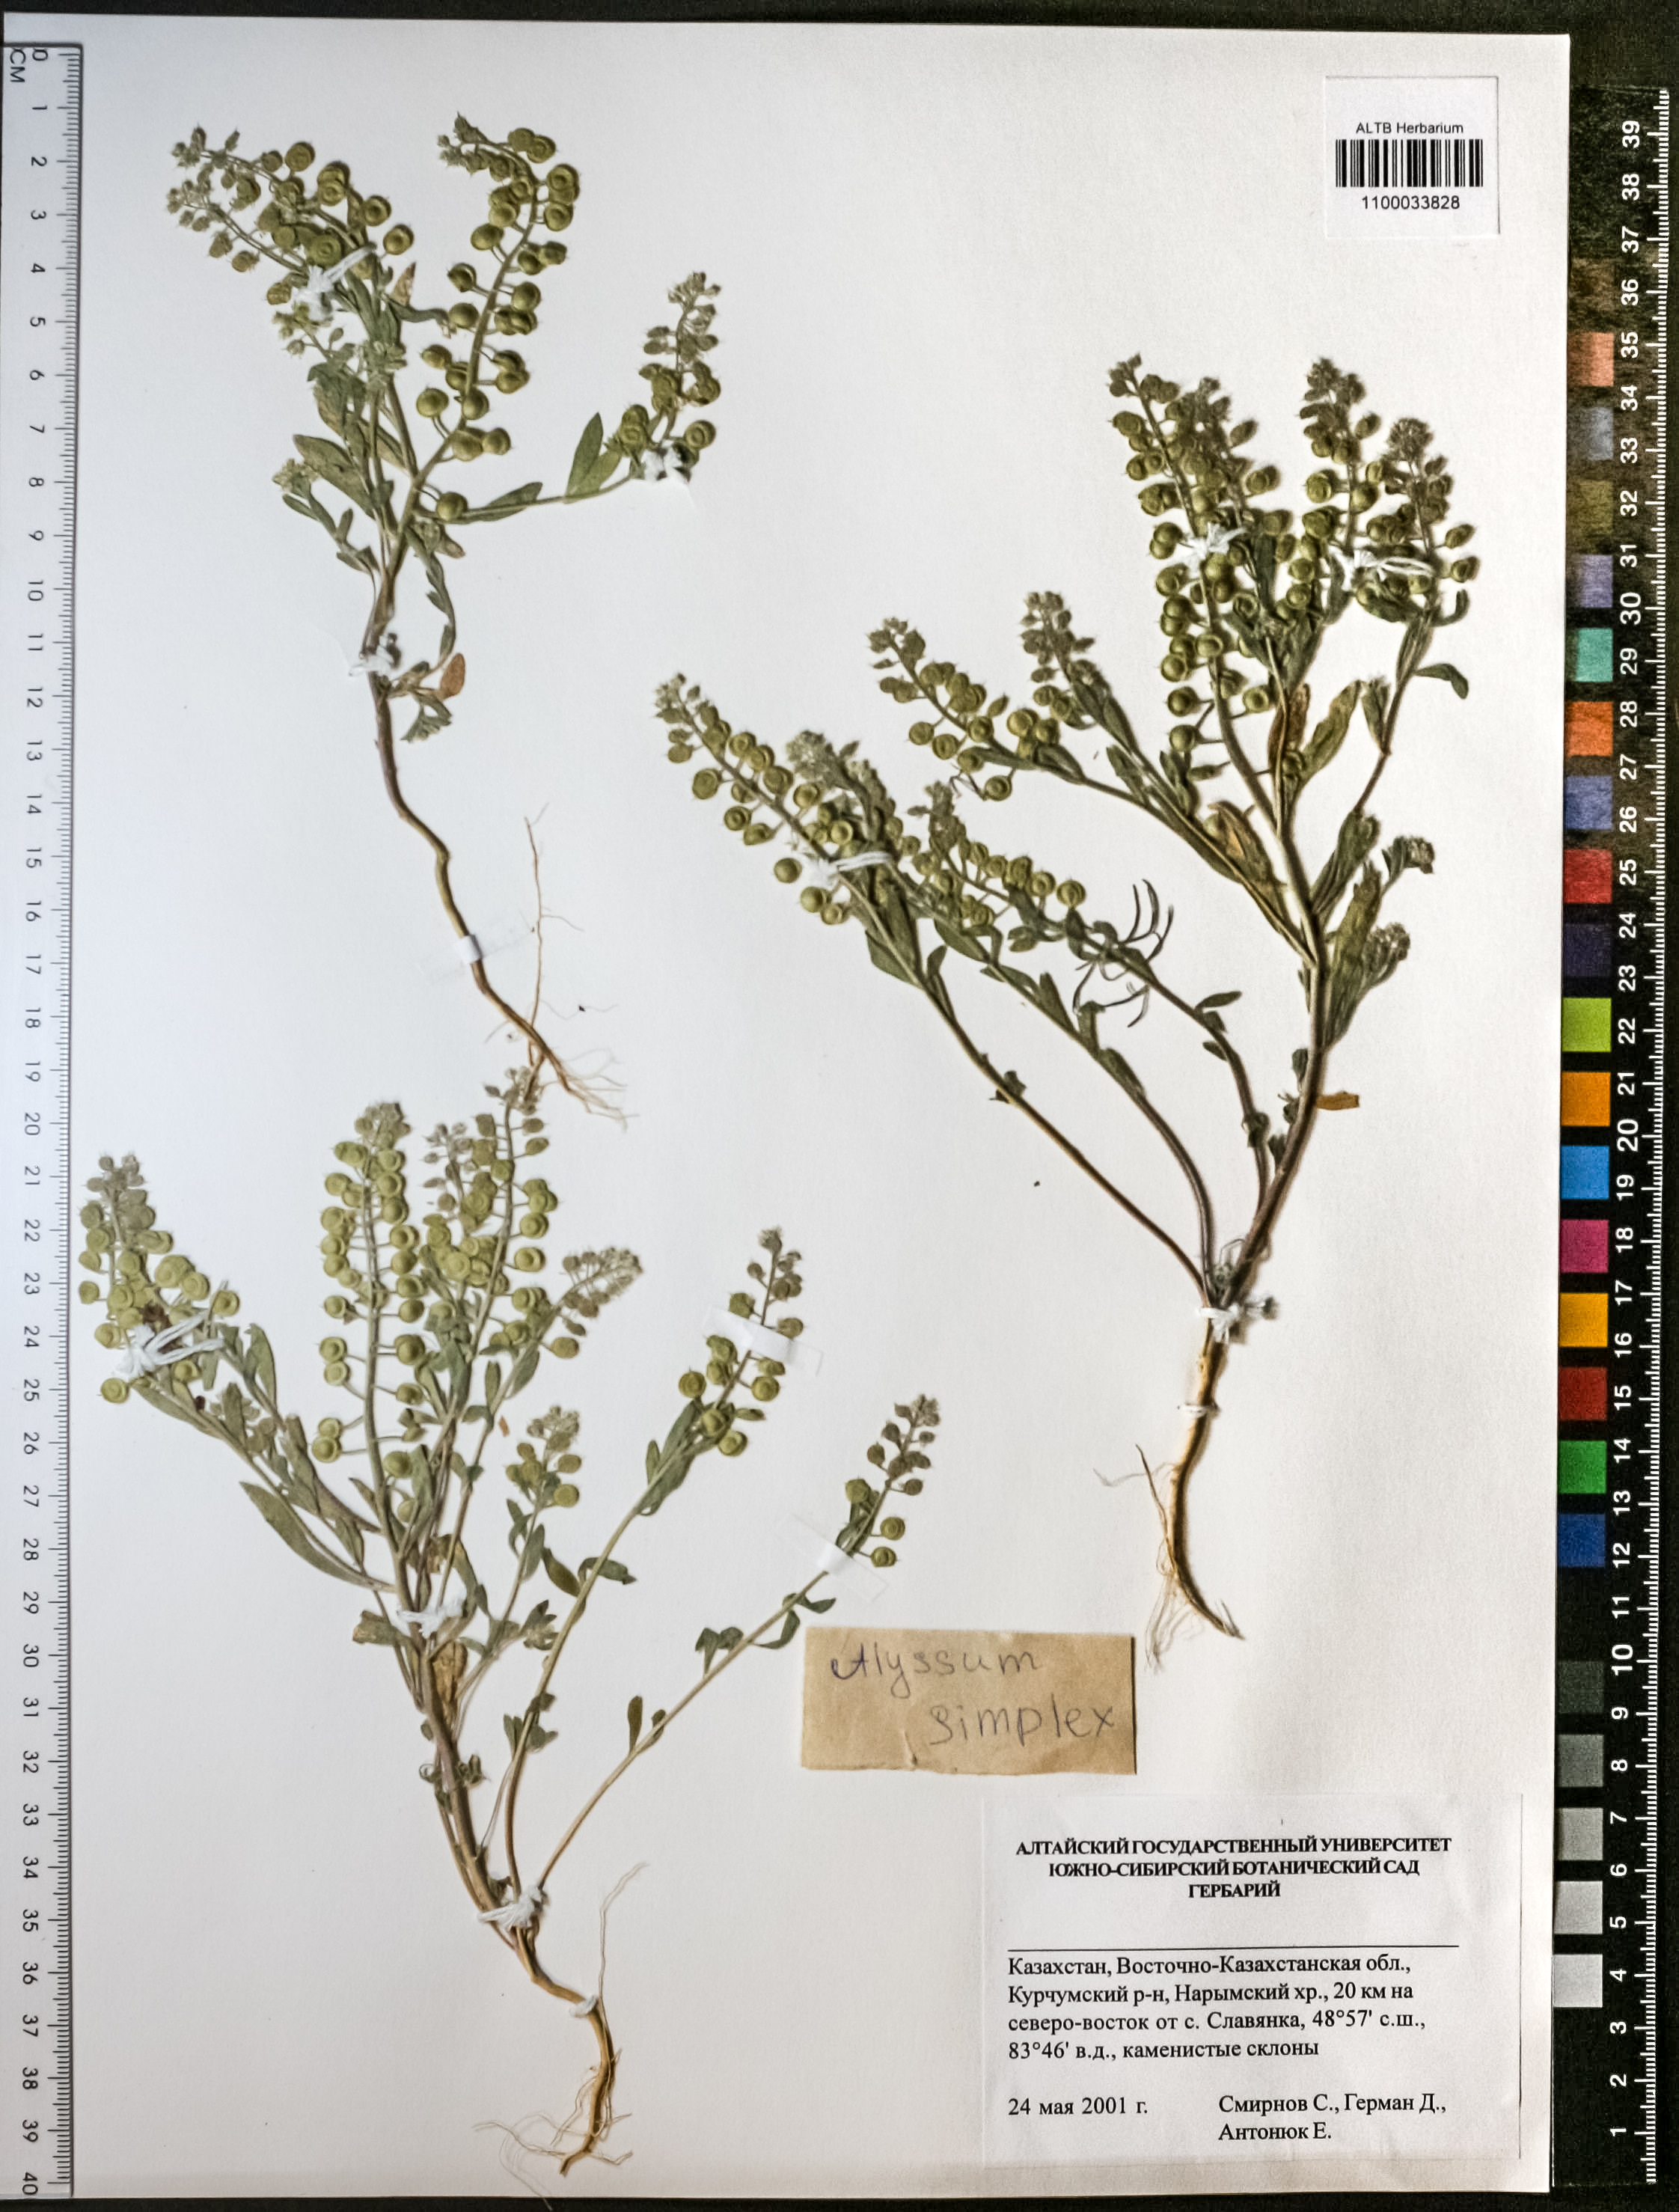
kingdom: Plantae
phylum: Tracheophyta
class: Magnoliopsida
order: Brassicales
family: Brassicaceae
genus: Alyssum
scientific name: Alyssum simplex
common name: Alyssum
